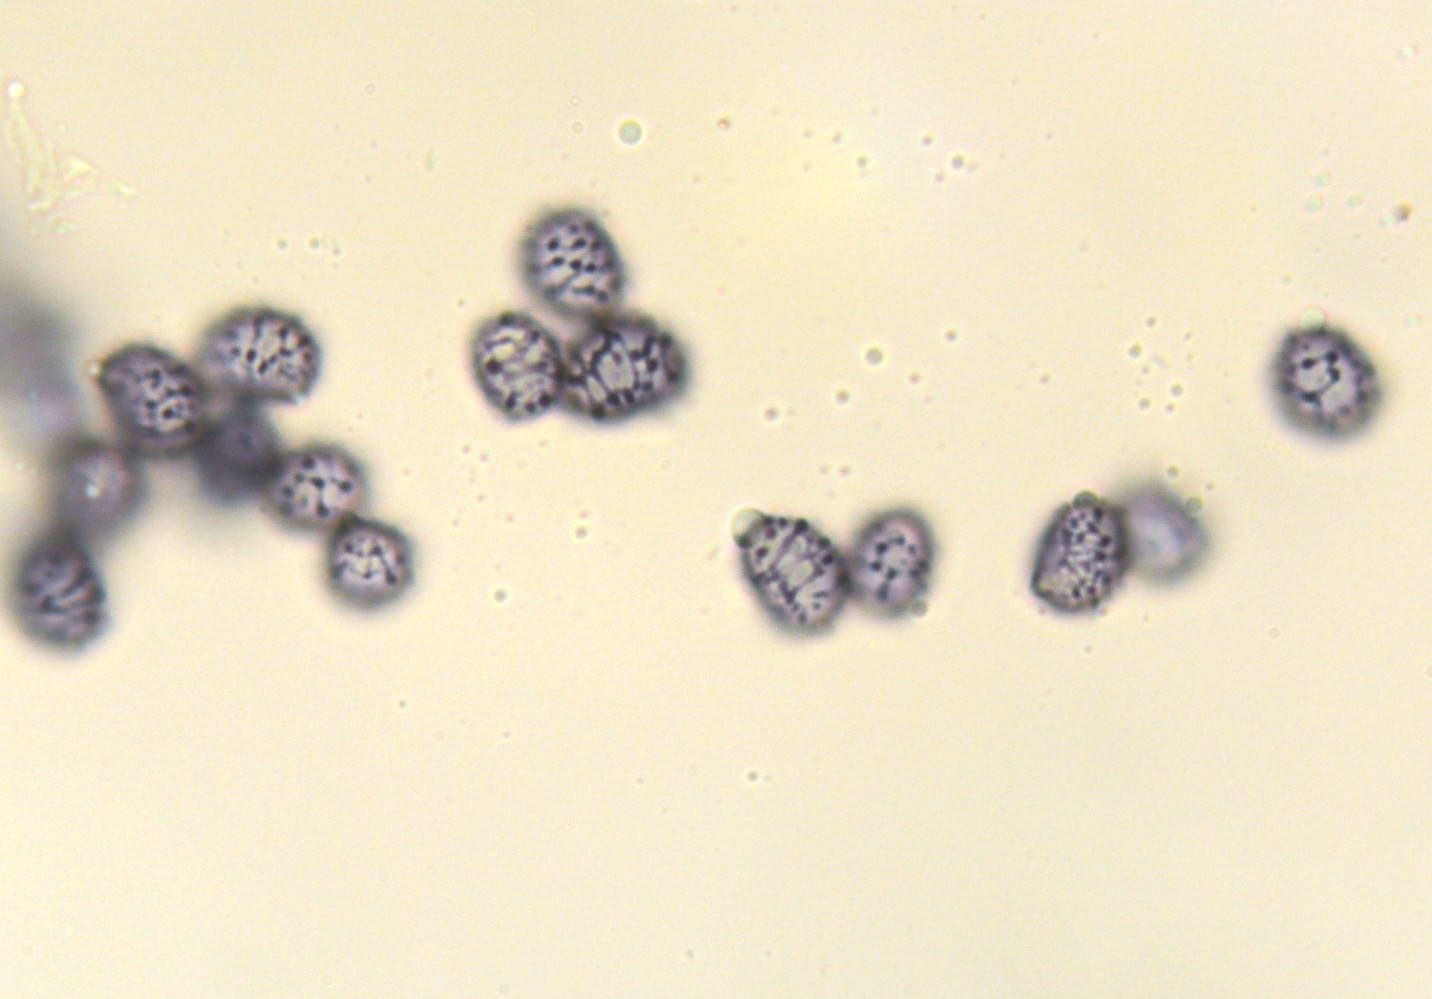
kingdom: Fungi
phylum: Basidiomycota
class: Agaricomycetes
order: Russulales
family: Russulaceae
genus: Russula
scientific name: Russula laccata
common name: klit-skørhat
